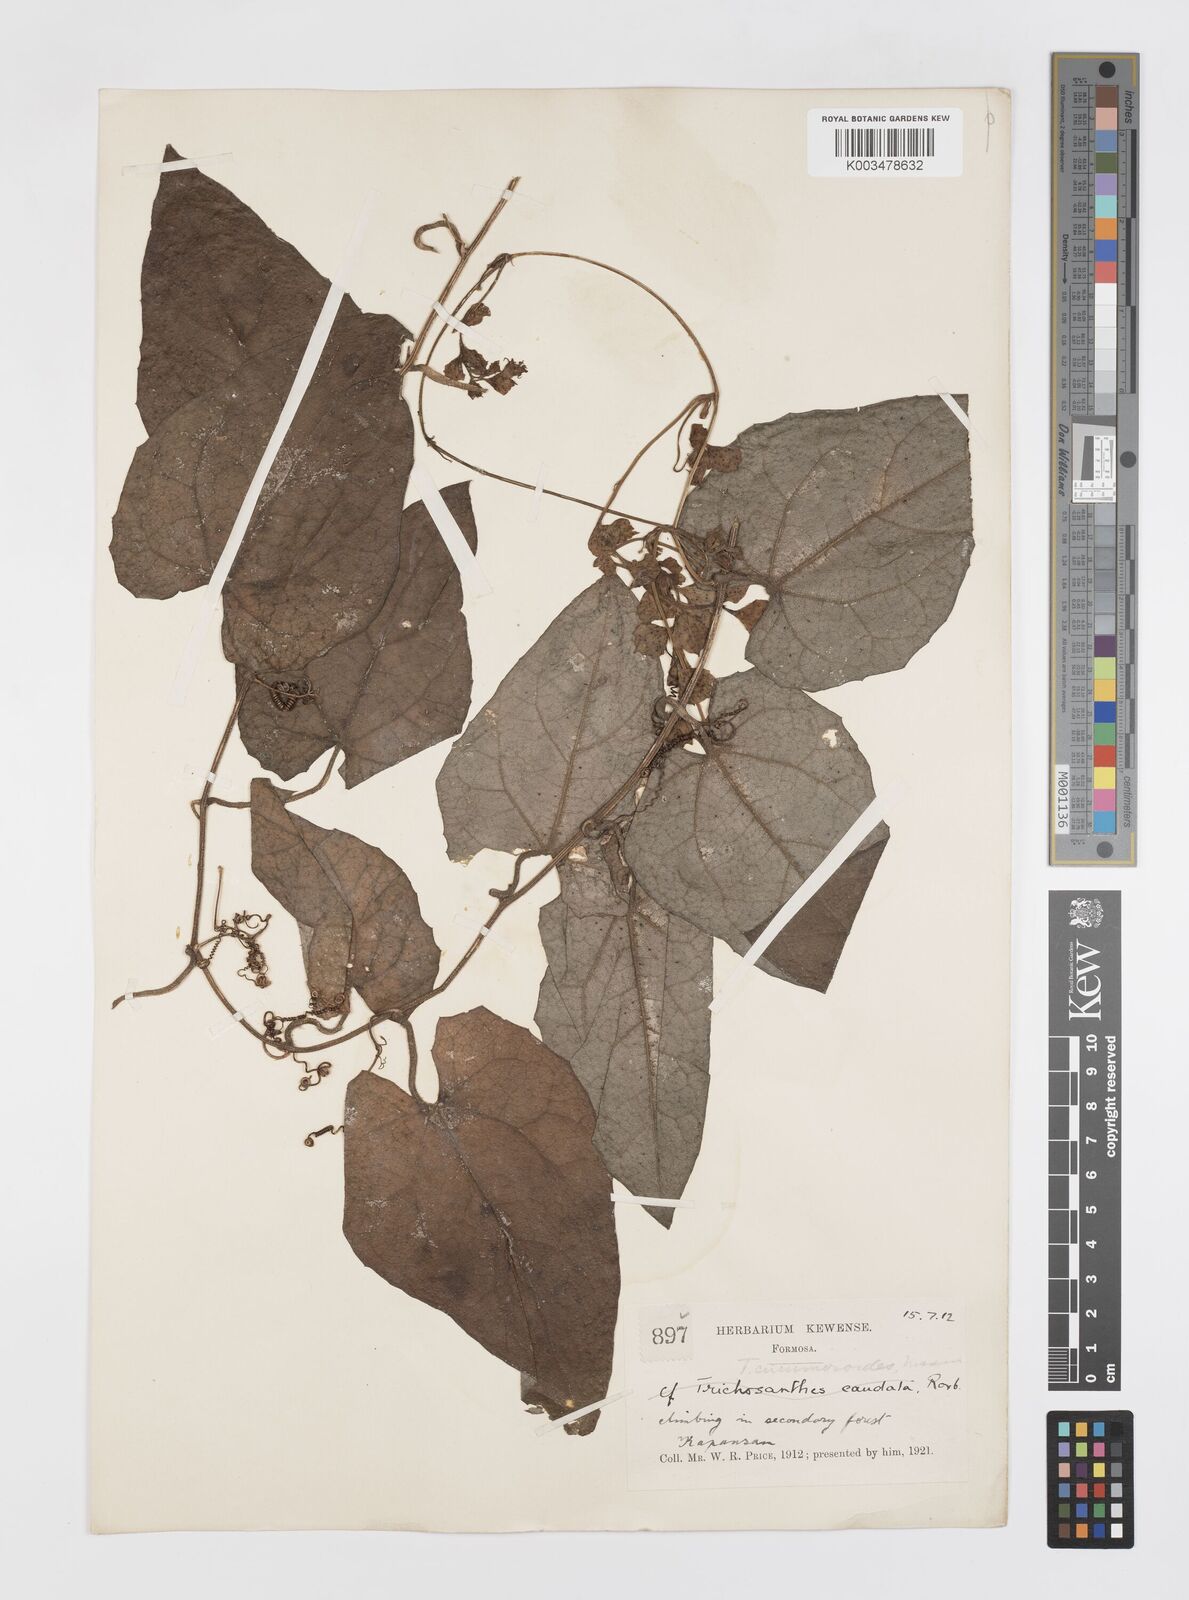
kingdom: Plantae
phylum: Tracheophyta
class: Magnoliopsida
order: Cucurbitales
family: Cucurbitaceae
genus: Trichosanthes
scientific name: Trichosanthes homophylla
